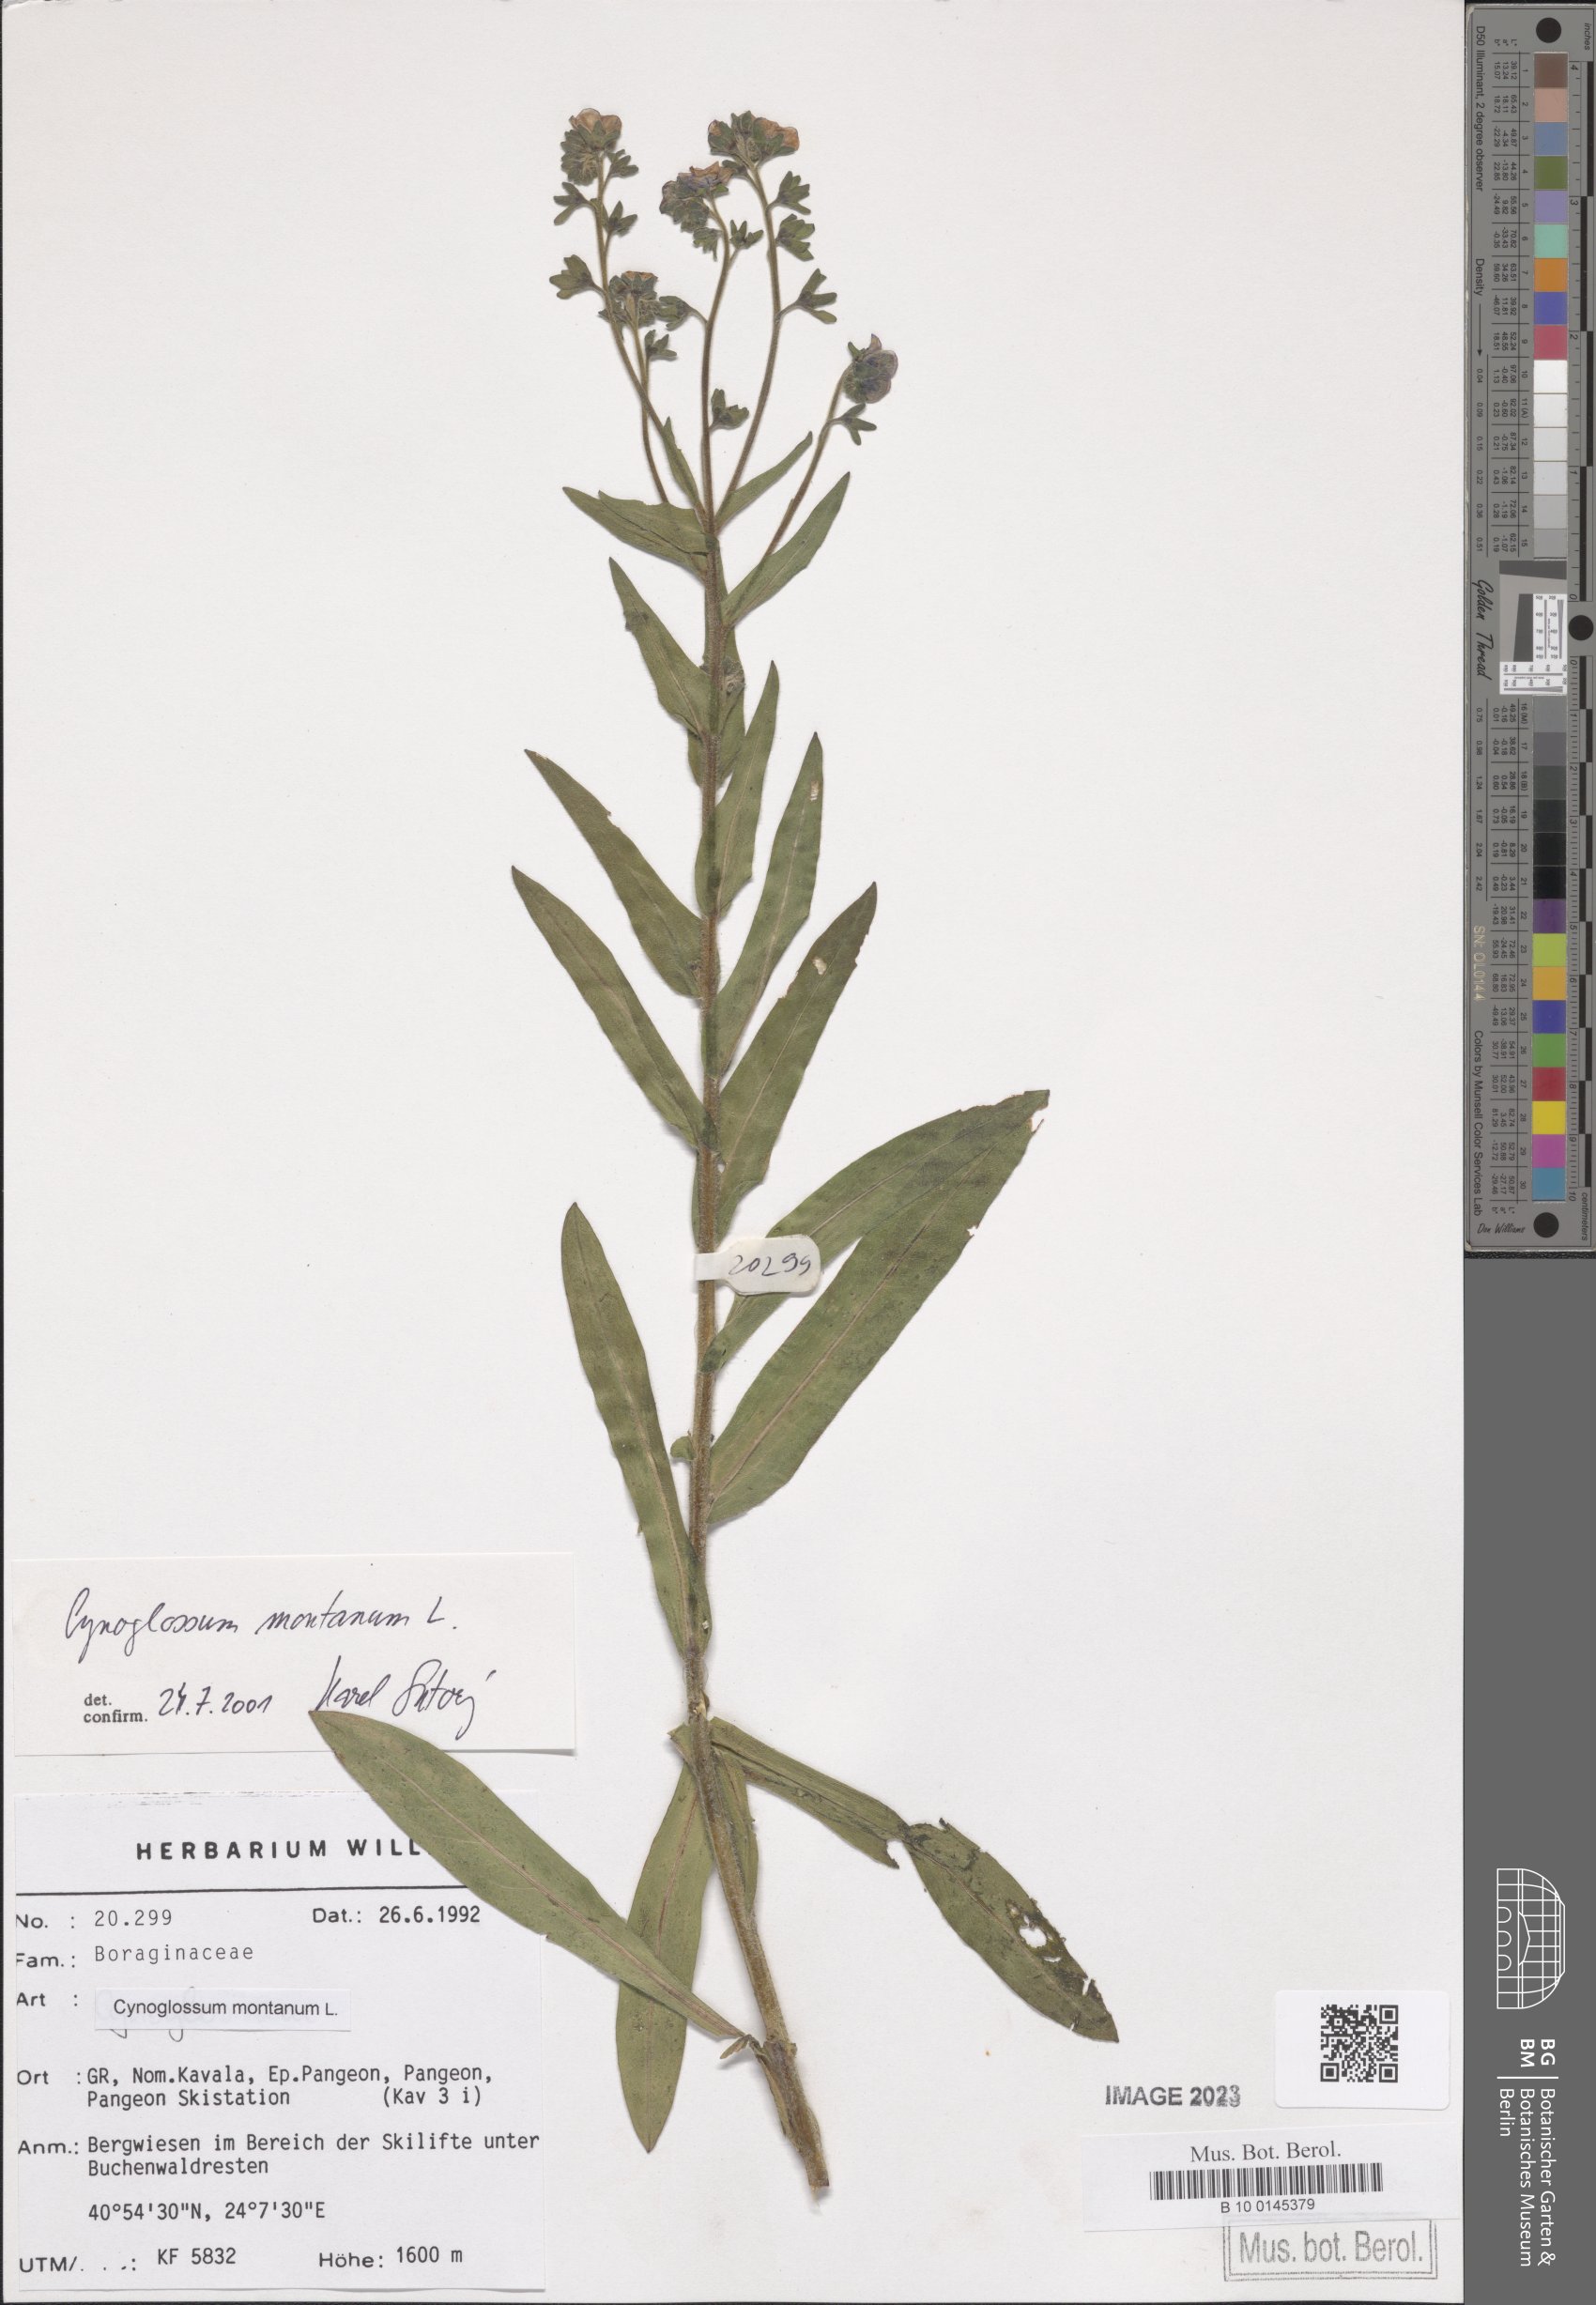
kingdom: Plantae
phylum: Tracheophyta
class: Magnoliopsida
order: Boraginales
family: Boraginaceae
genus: Cynoglossum
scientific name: Cynoglossum montanum
